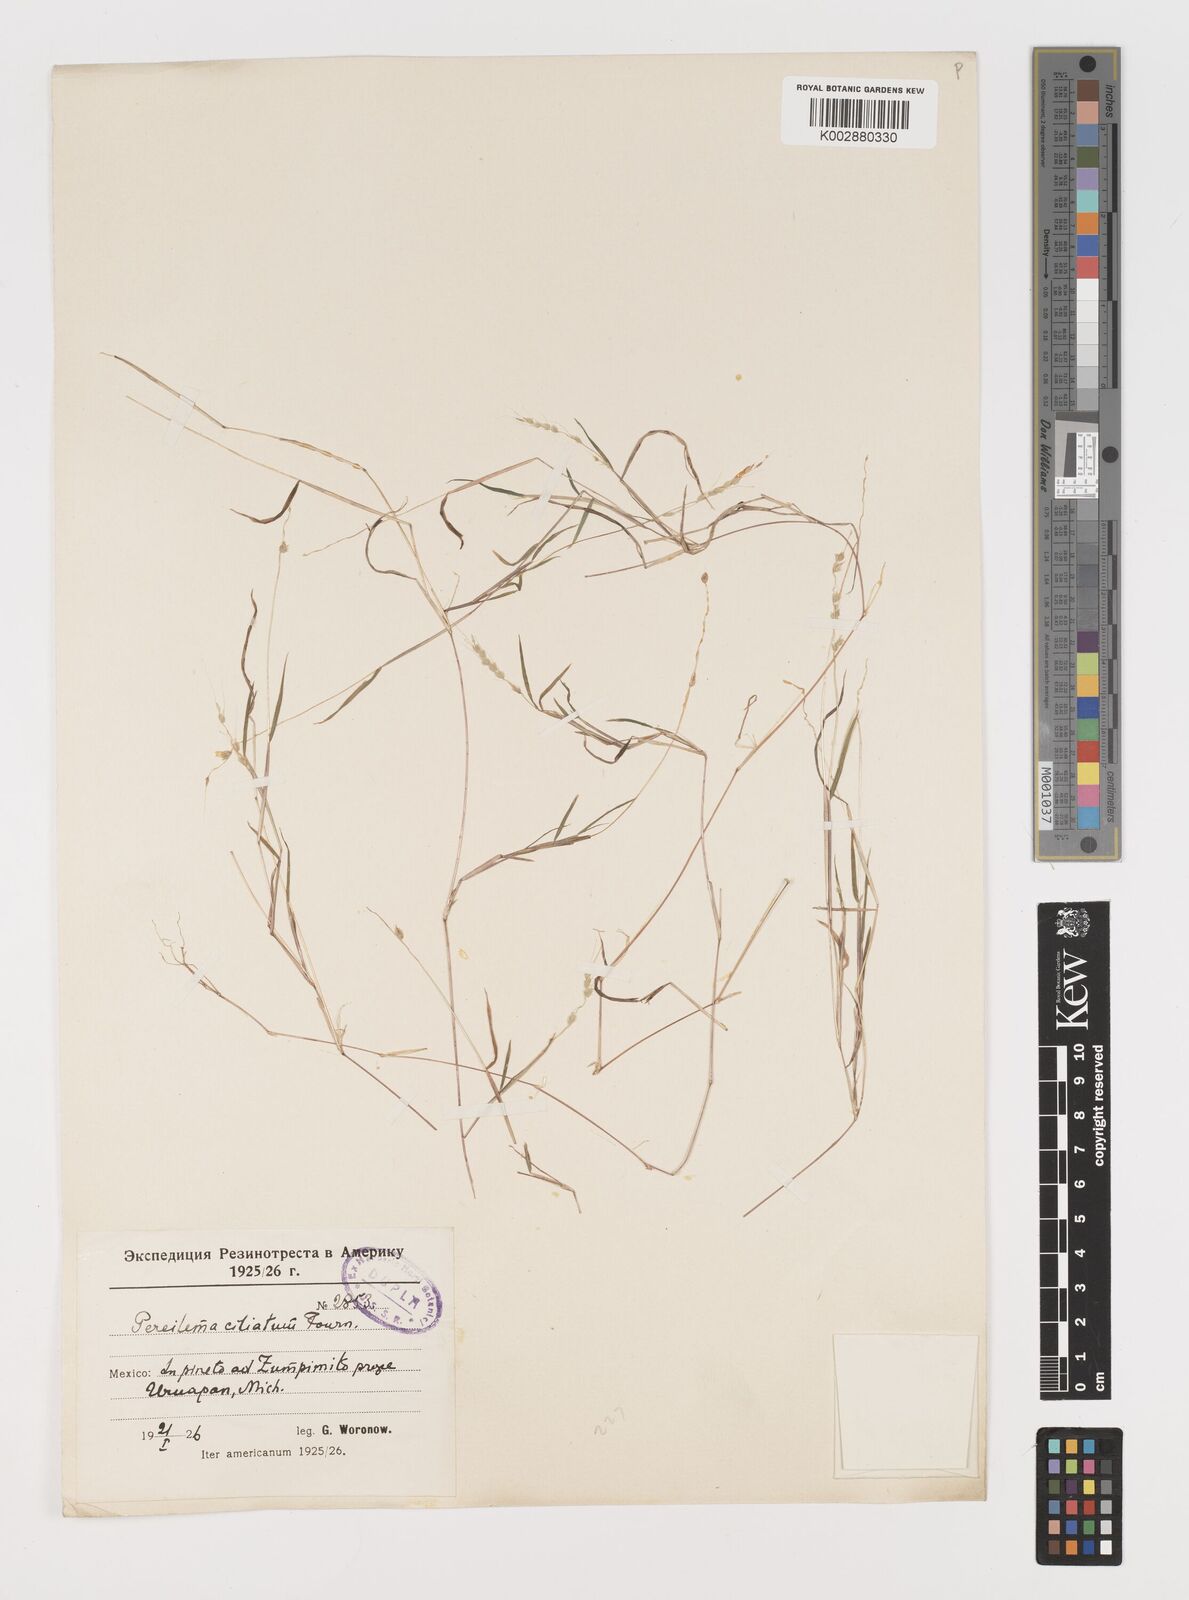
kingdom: Plantae
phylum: Tracheophyta
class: Liliopsida
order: Poales
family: Poaceae
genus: Muhlenbergia
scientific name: Muhlenbergia plumiseta
